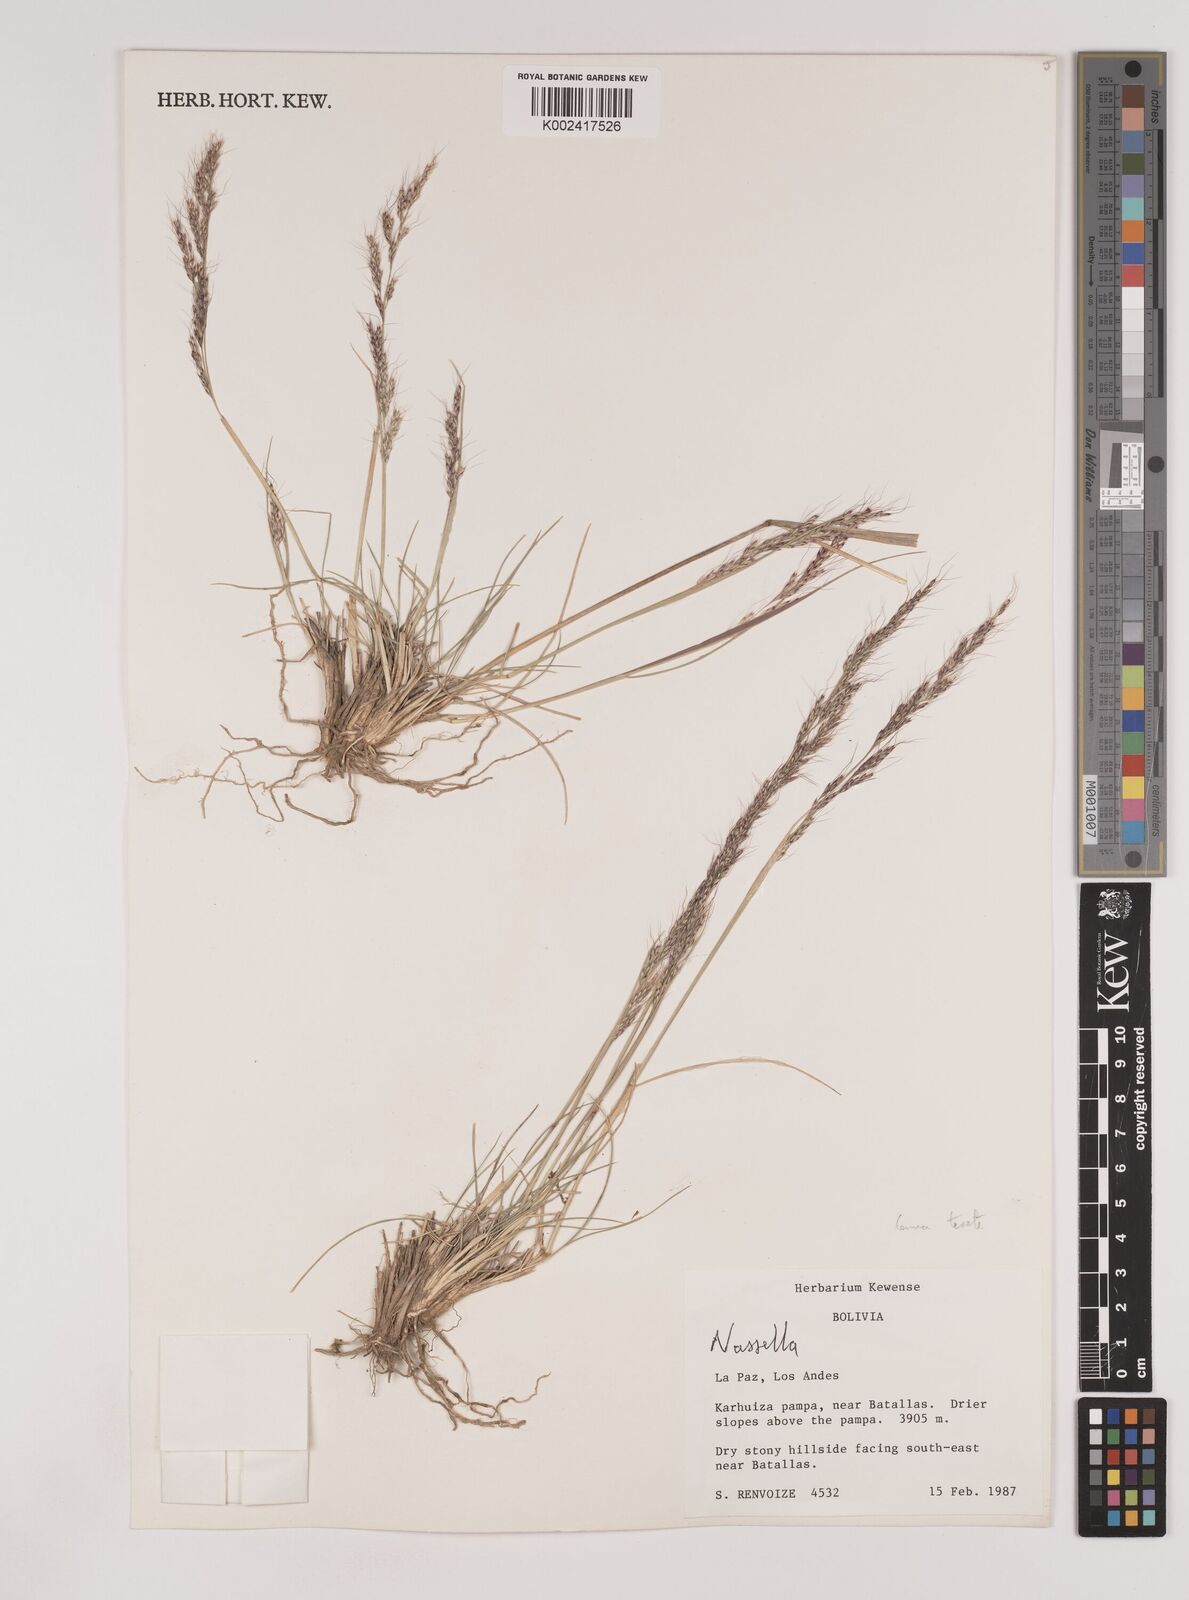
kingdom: Plantae
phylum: Tracheophyta
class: Liliopsida
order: Poales
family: Poaceae
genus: Nassella
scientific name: Nassella pubiflora
